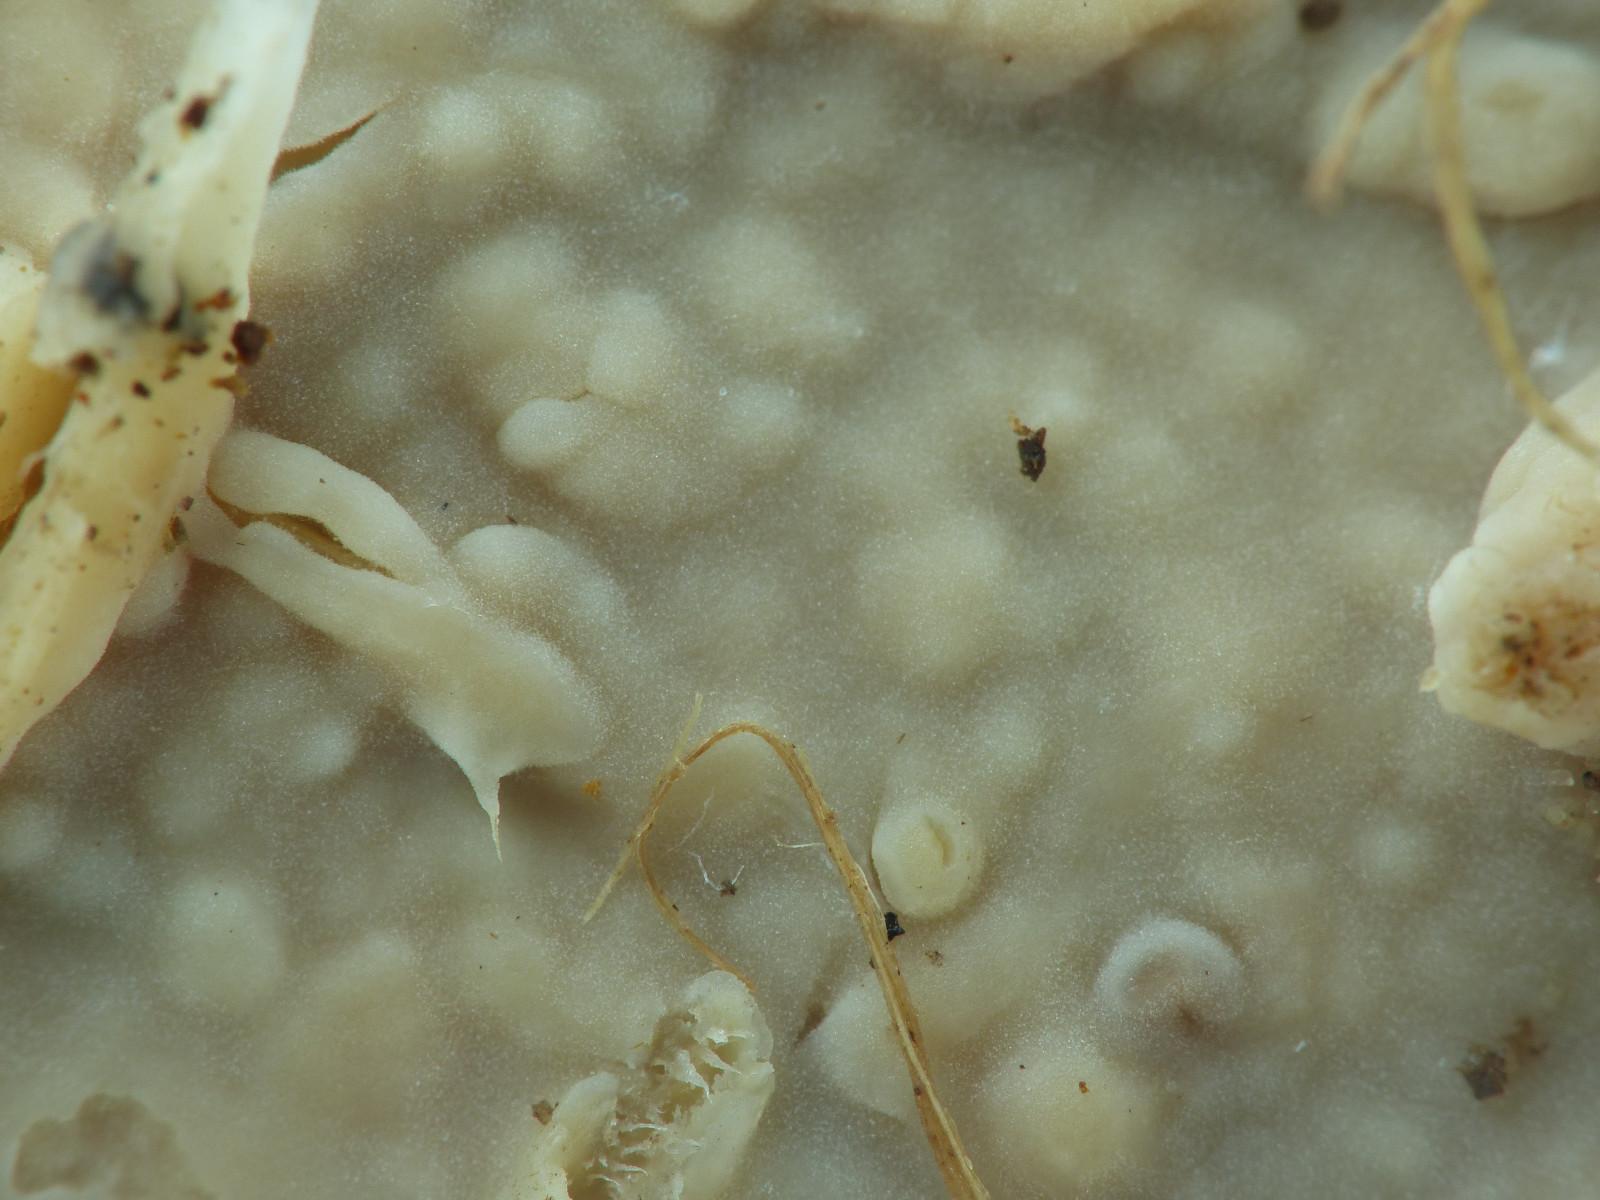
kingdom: Fungi
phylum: Basidiomycota
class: Agaricomycetes
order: Agaricales
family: Radulomycetaceae
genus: Radulomyces
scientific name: Radulomyces confluens
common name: glat naftalinskind
